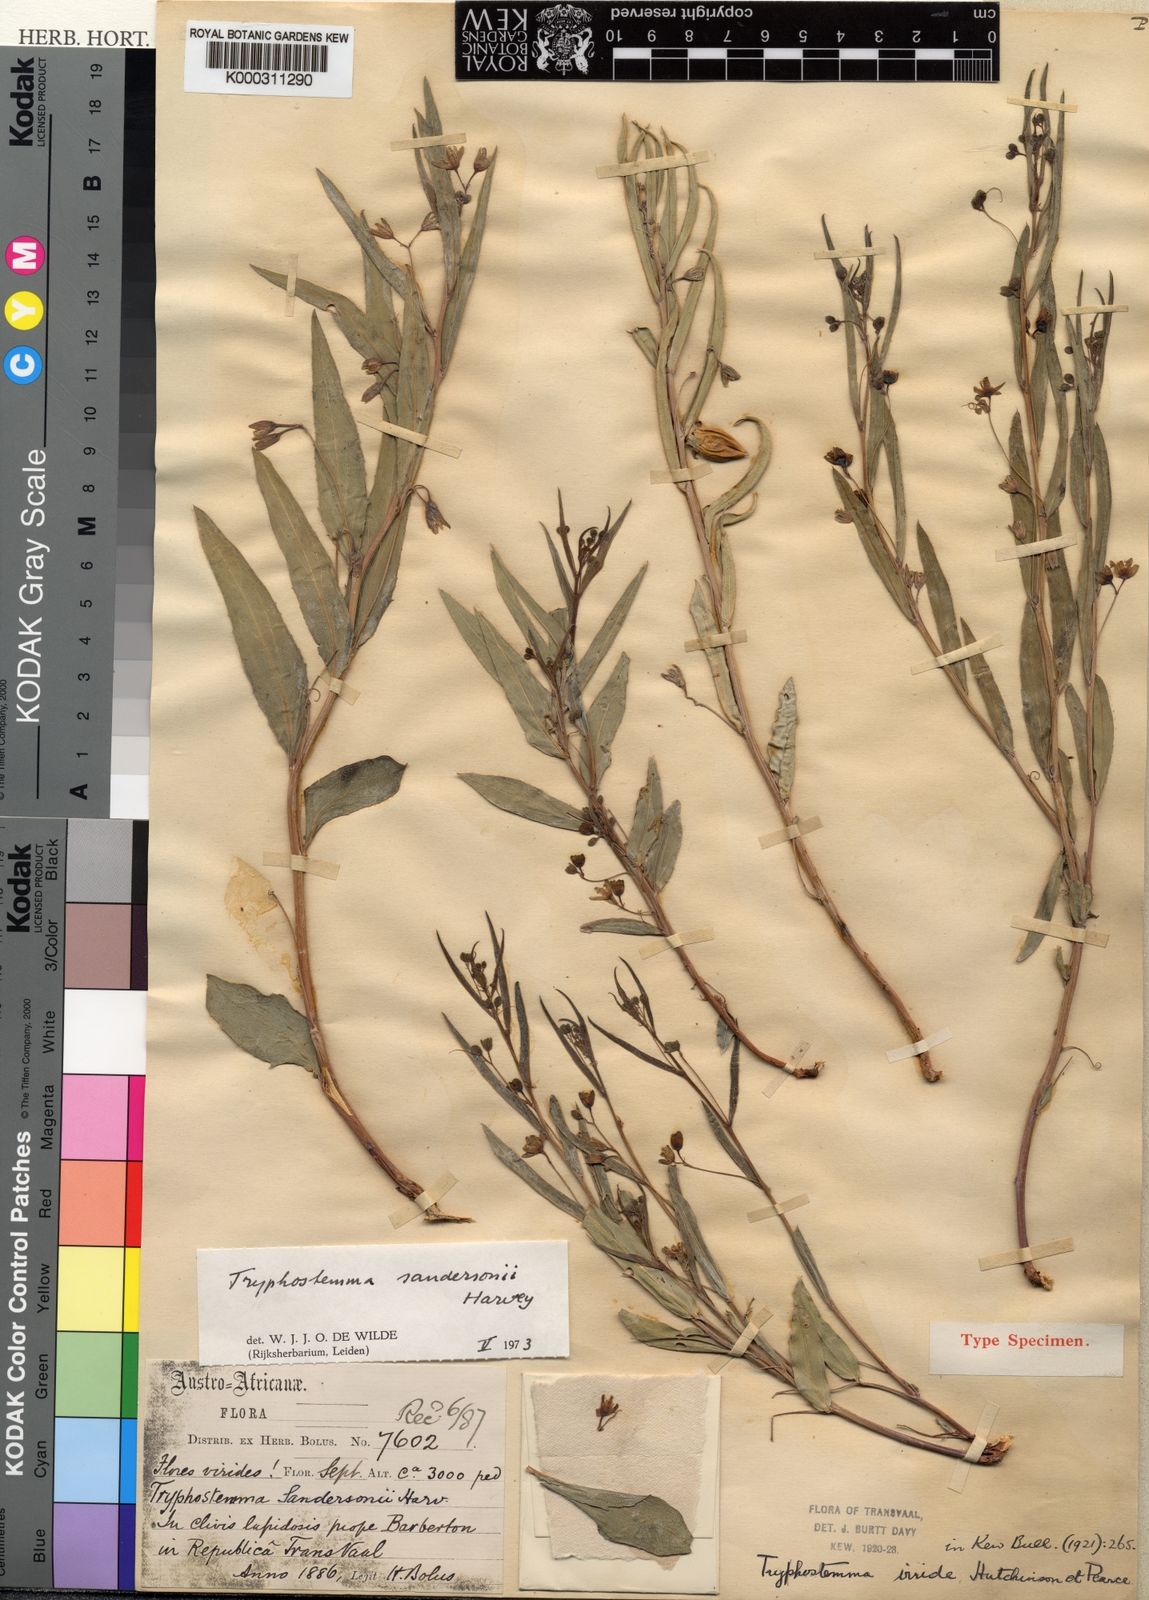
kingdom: Plantae
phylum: Tracheophyta
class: Magnoliopsida
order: Malpighiales
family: Passifloraceae
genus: Basananthe
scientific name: Basananthe sandersonii
